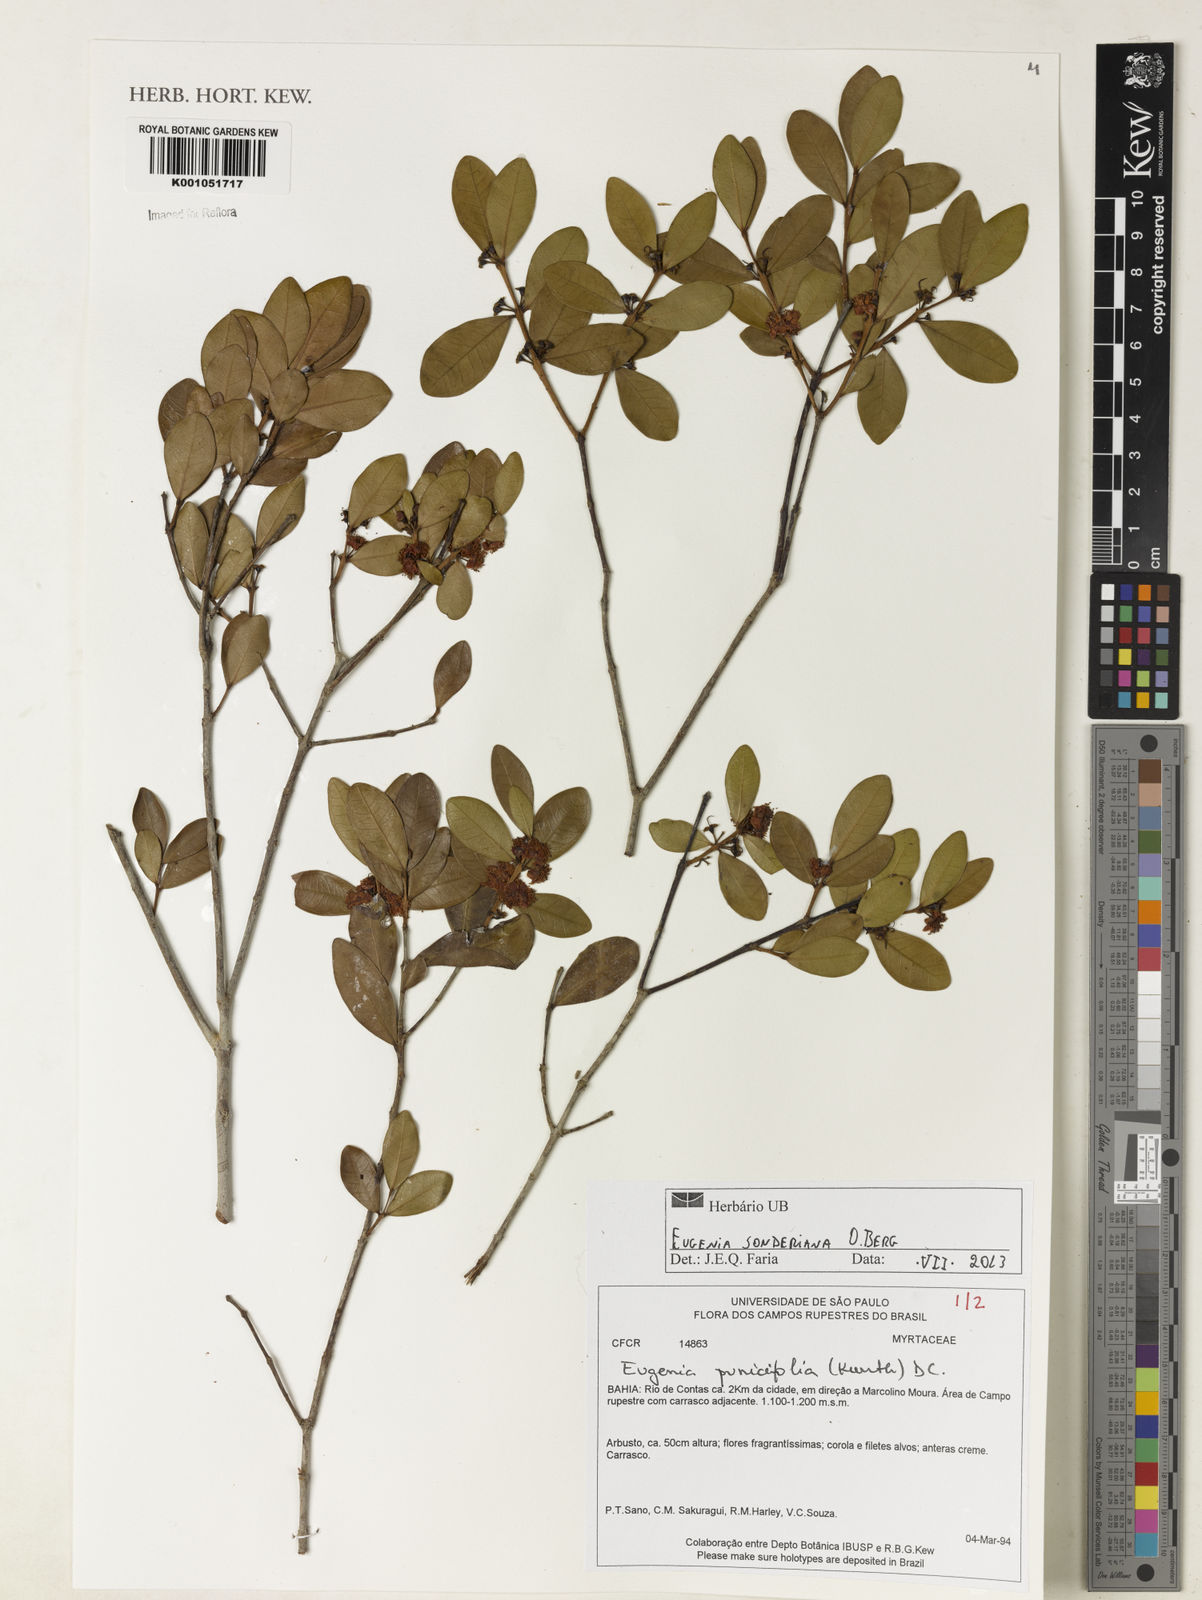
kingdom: Plantae
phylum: Tracheophyta
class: Magnoliopsida
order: Myrtales
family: Myrtaceae
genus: Eugenia
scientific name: Eugenia sonderiana
